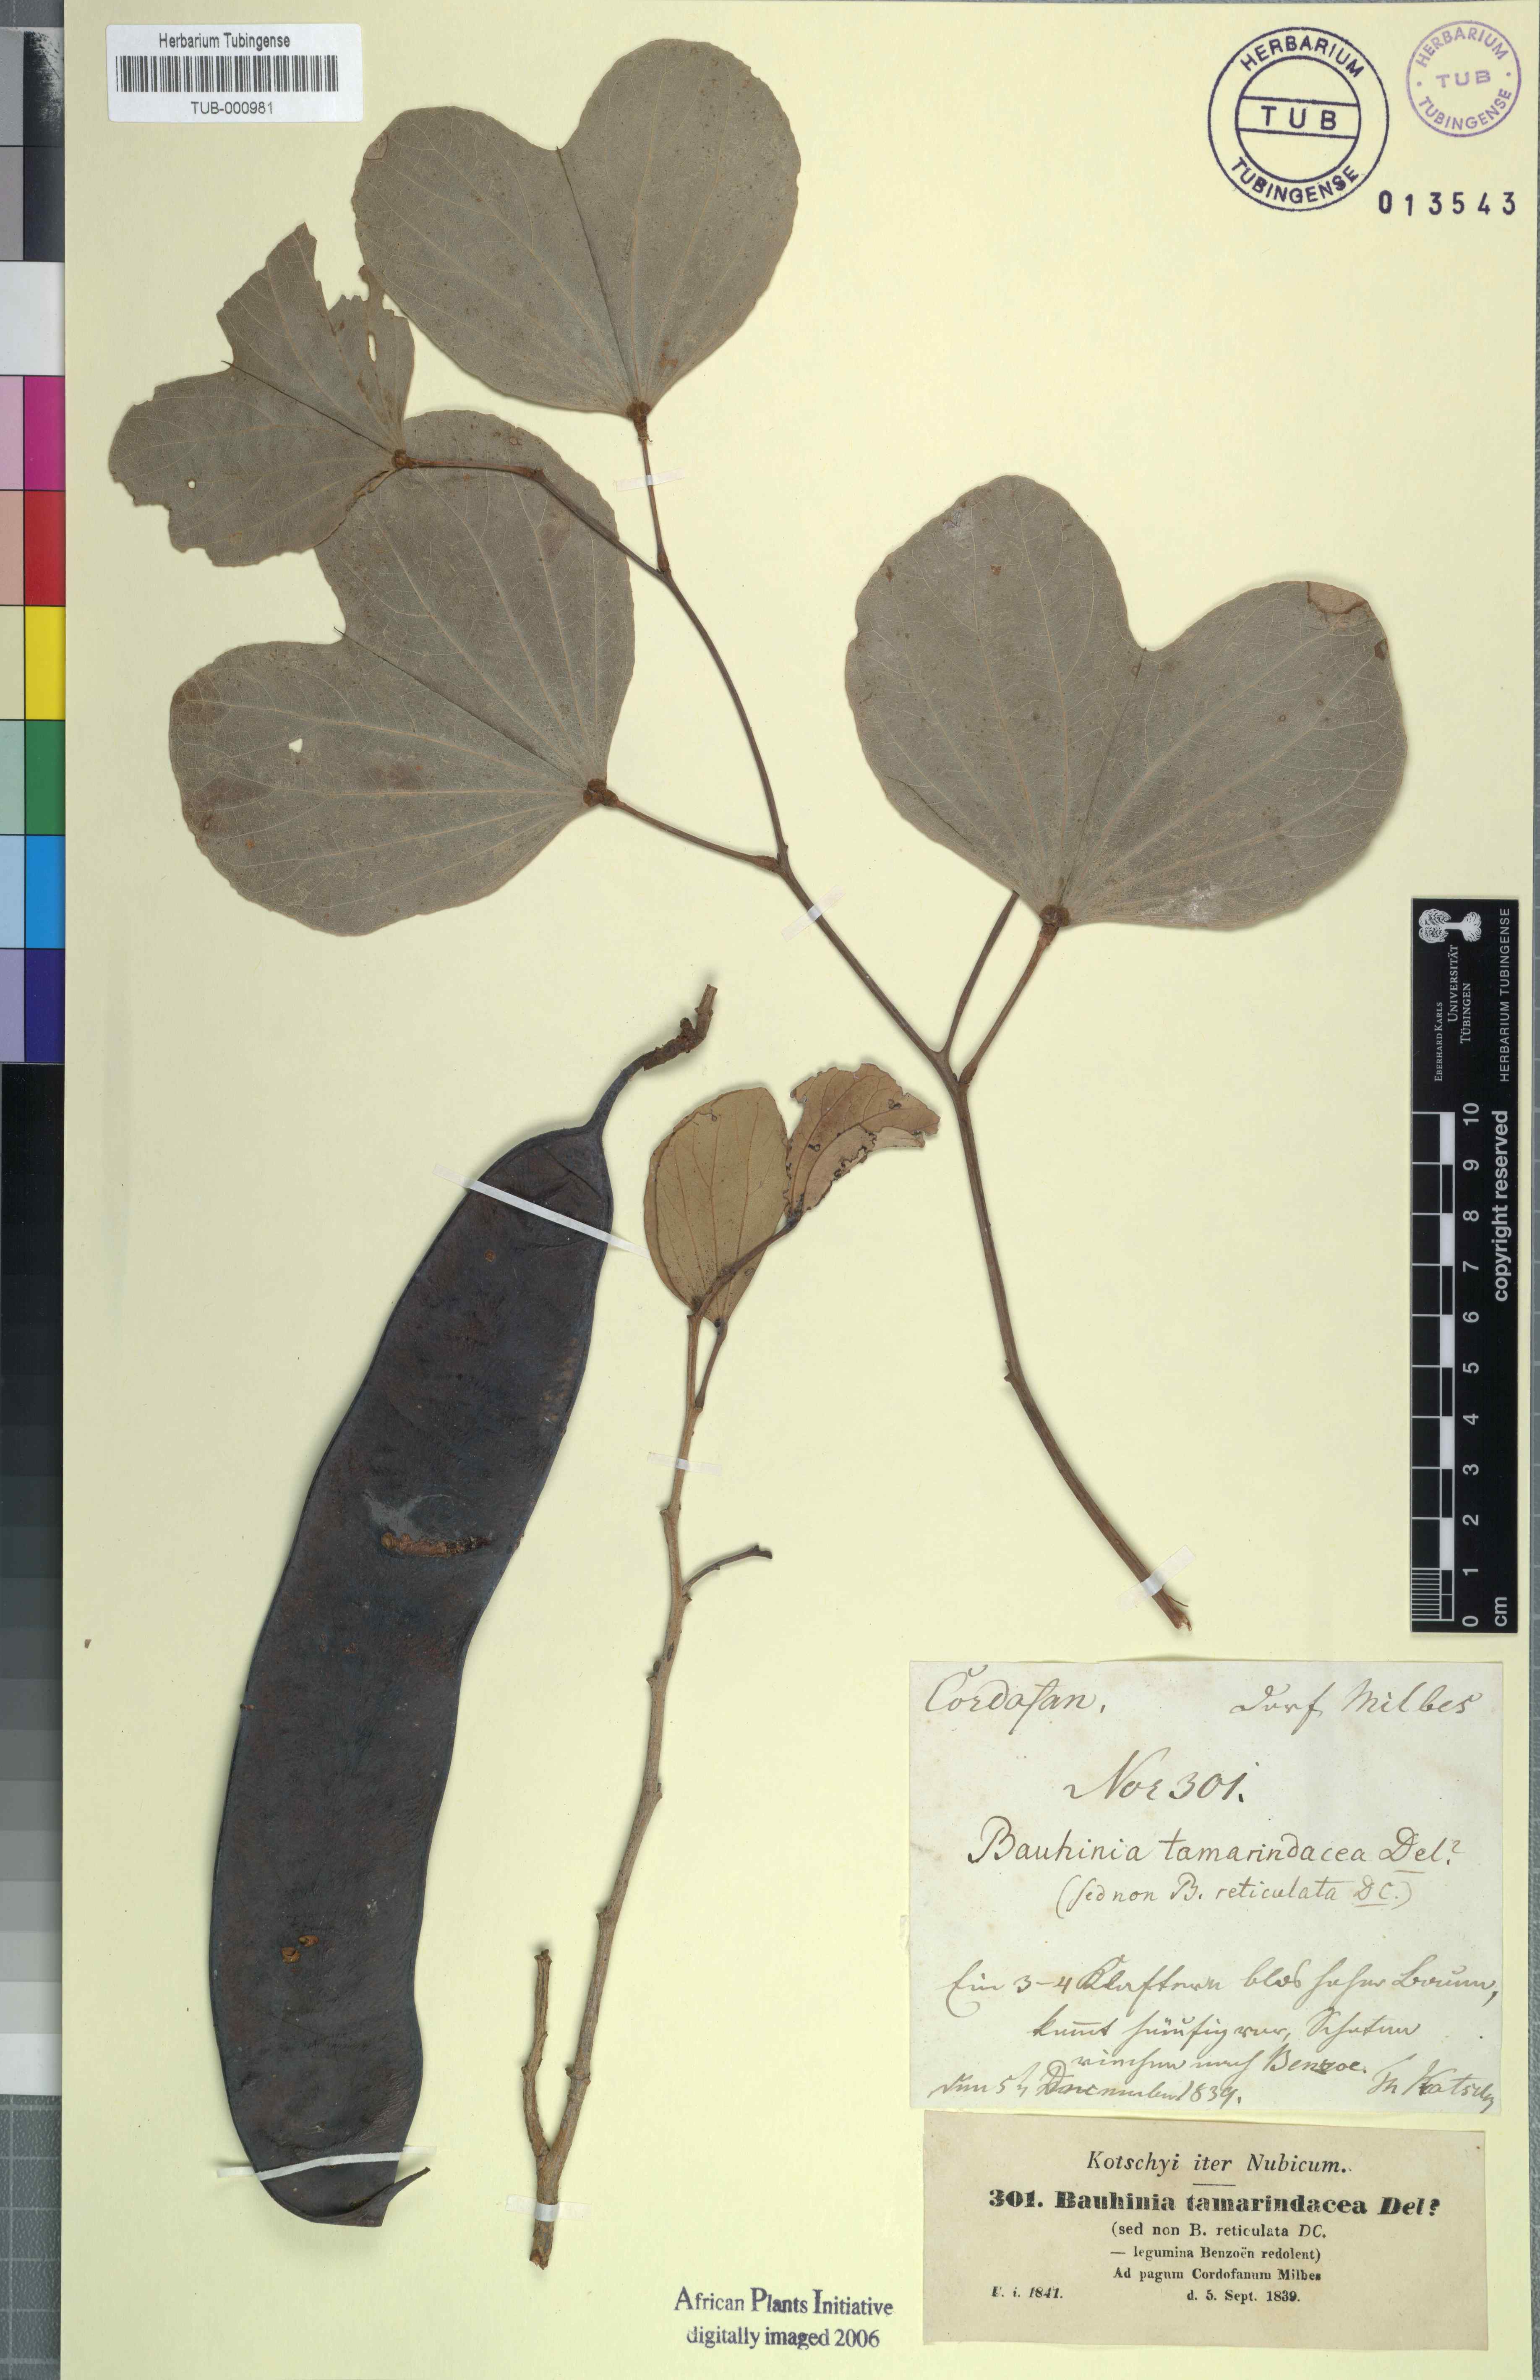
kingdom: Plantae
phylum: Tracheophyta
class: Magnoliopsida
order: Fabales
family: Fabaceae
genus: Piliostigma
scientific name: Piliostigma reticulatum
